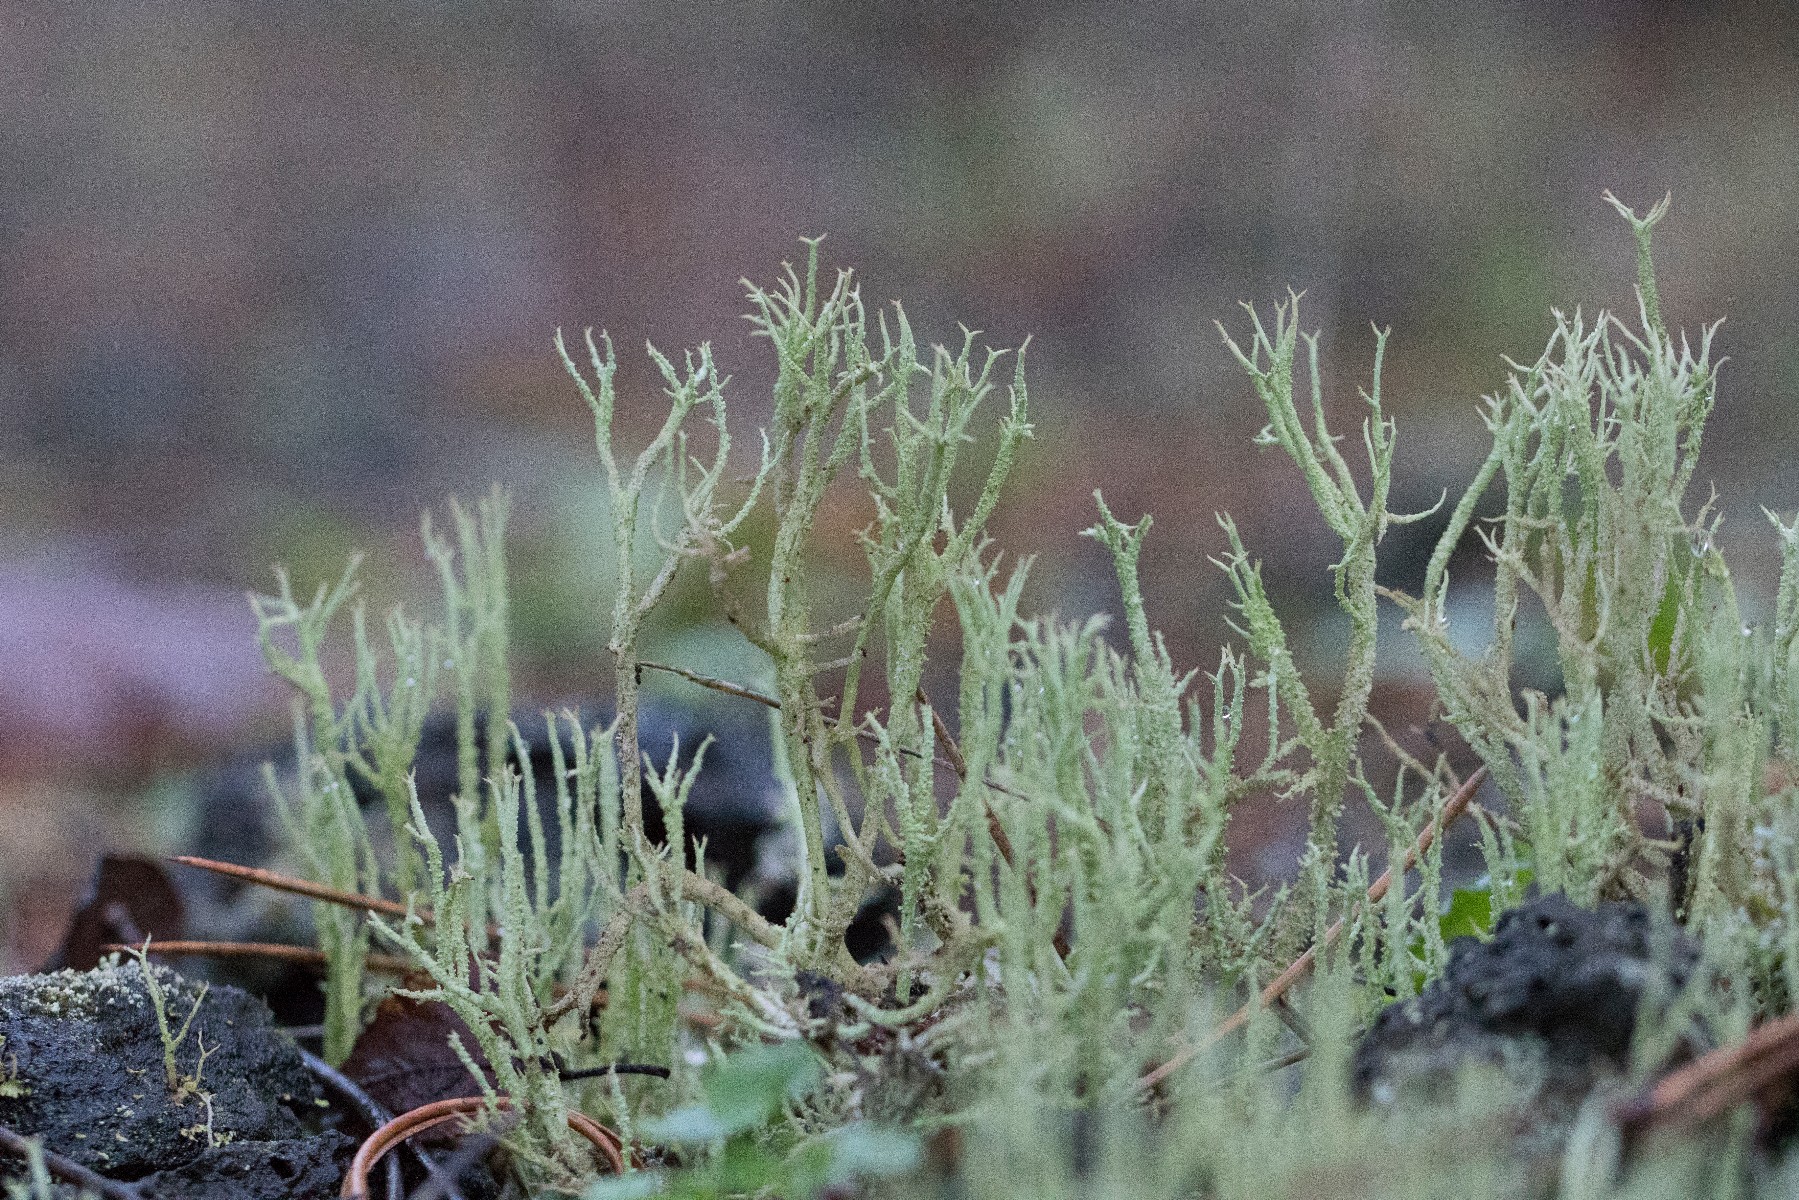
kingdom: Fungi
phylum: Ascomycota
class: Lecanoromycetes
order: Lecanorales
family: Cladoniaceae
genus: Cladonia
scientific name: Cladonia scabriuscula
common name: ru bægerlav
